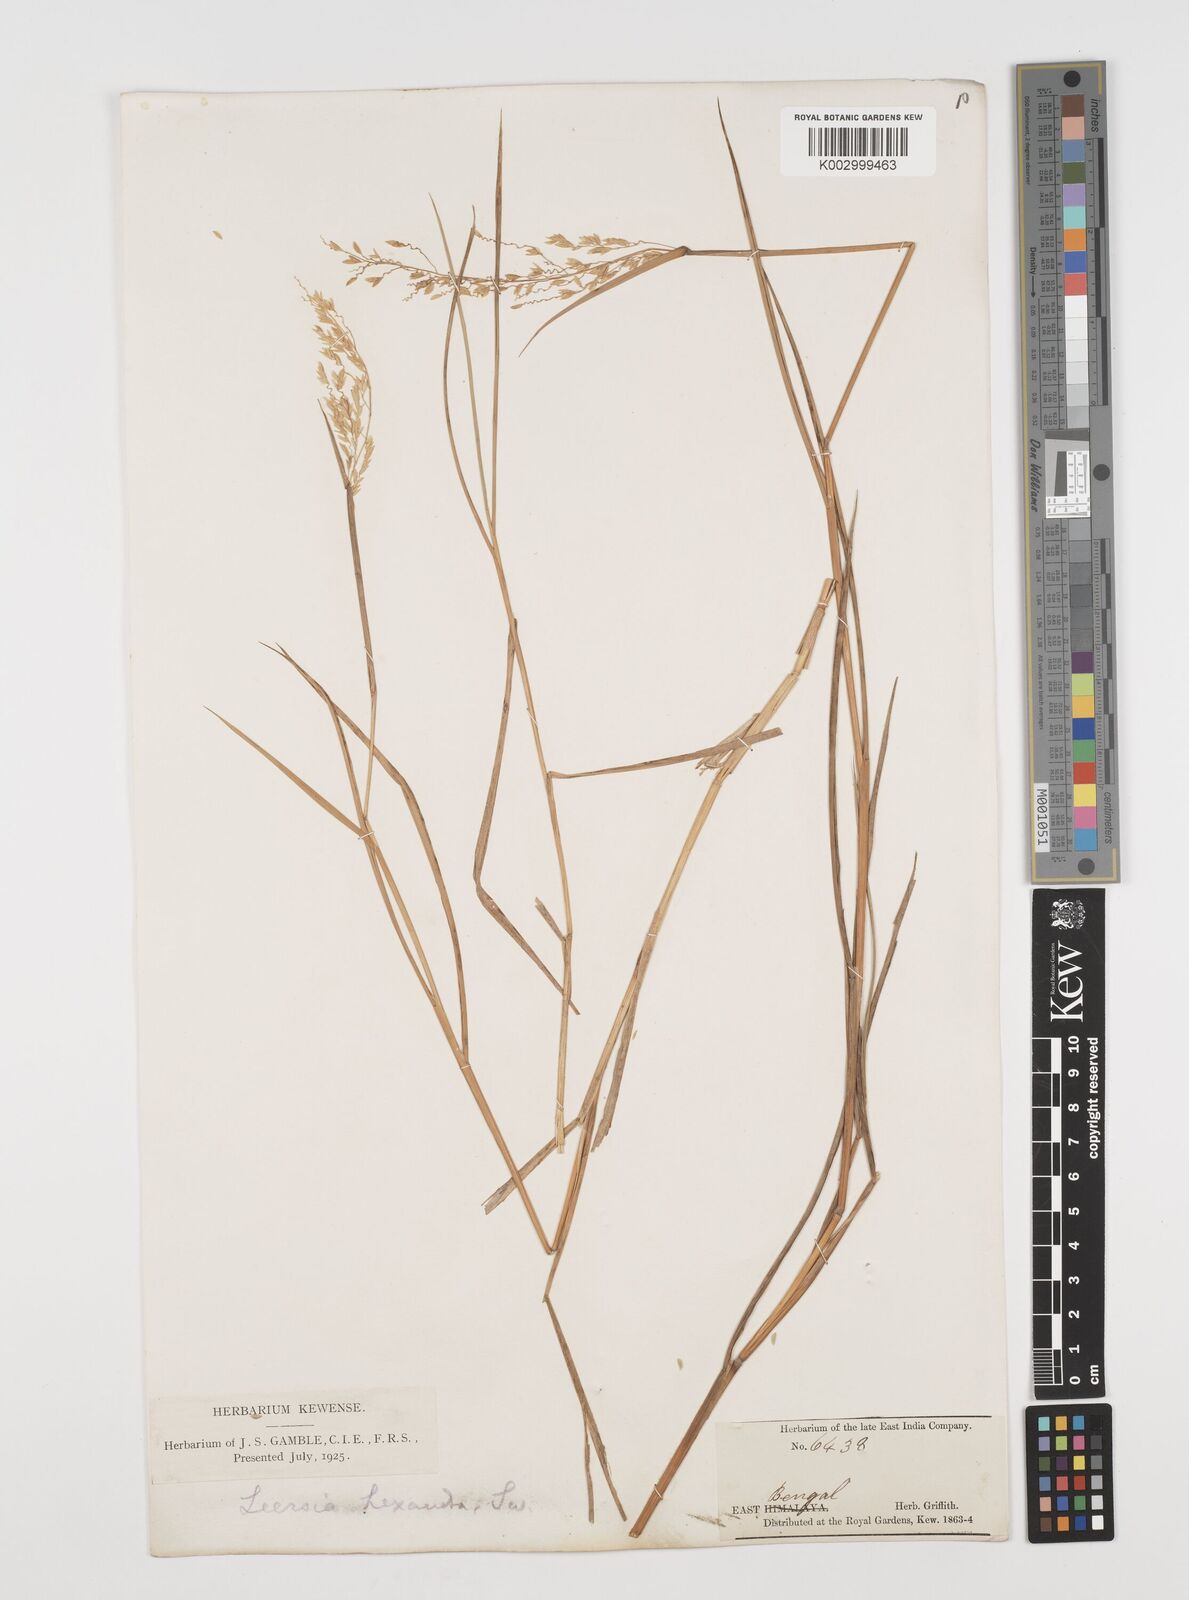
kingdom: Plantae
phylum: Tracheophyta
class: Liliopsida
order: Poales
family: Poaceae
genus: Leersia
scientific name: Leersia hexandra
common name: Southern cut grass
